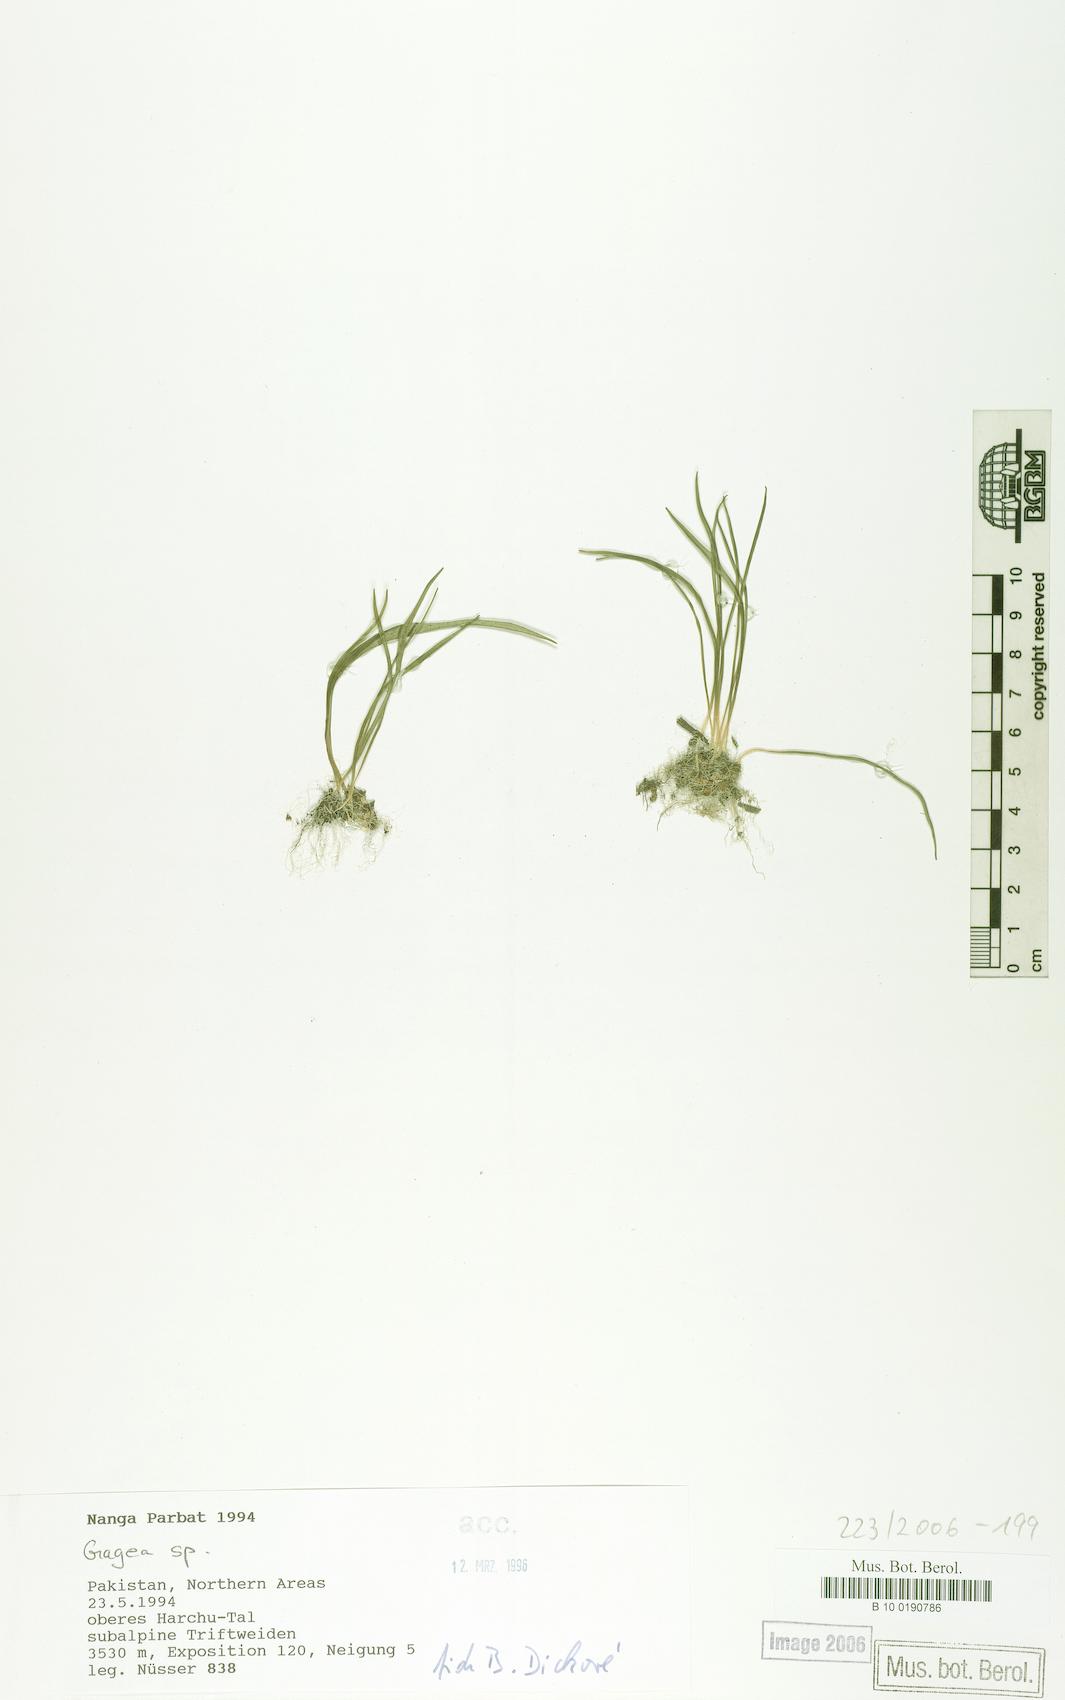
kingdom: Plantae
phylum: Tracheophyta
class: Liliopsida
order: Liliales
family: Liliaceae
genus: Gagea
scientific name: Gagea
